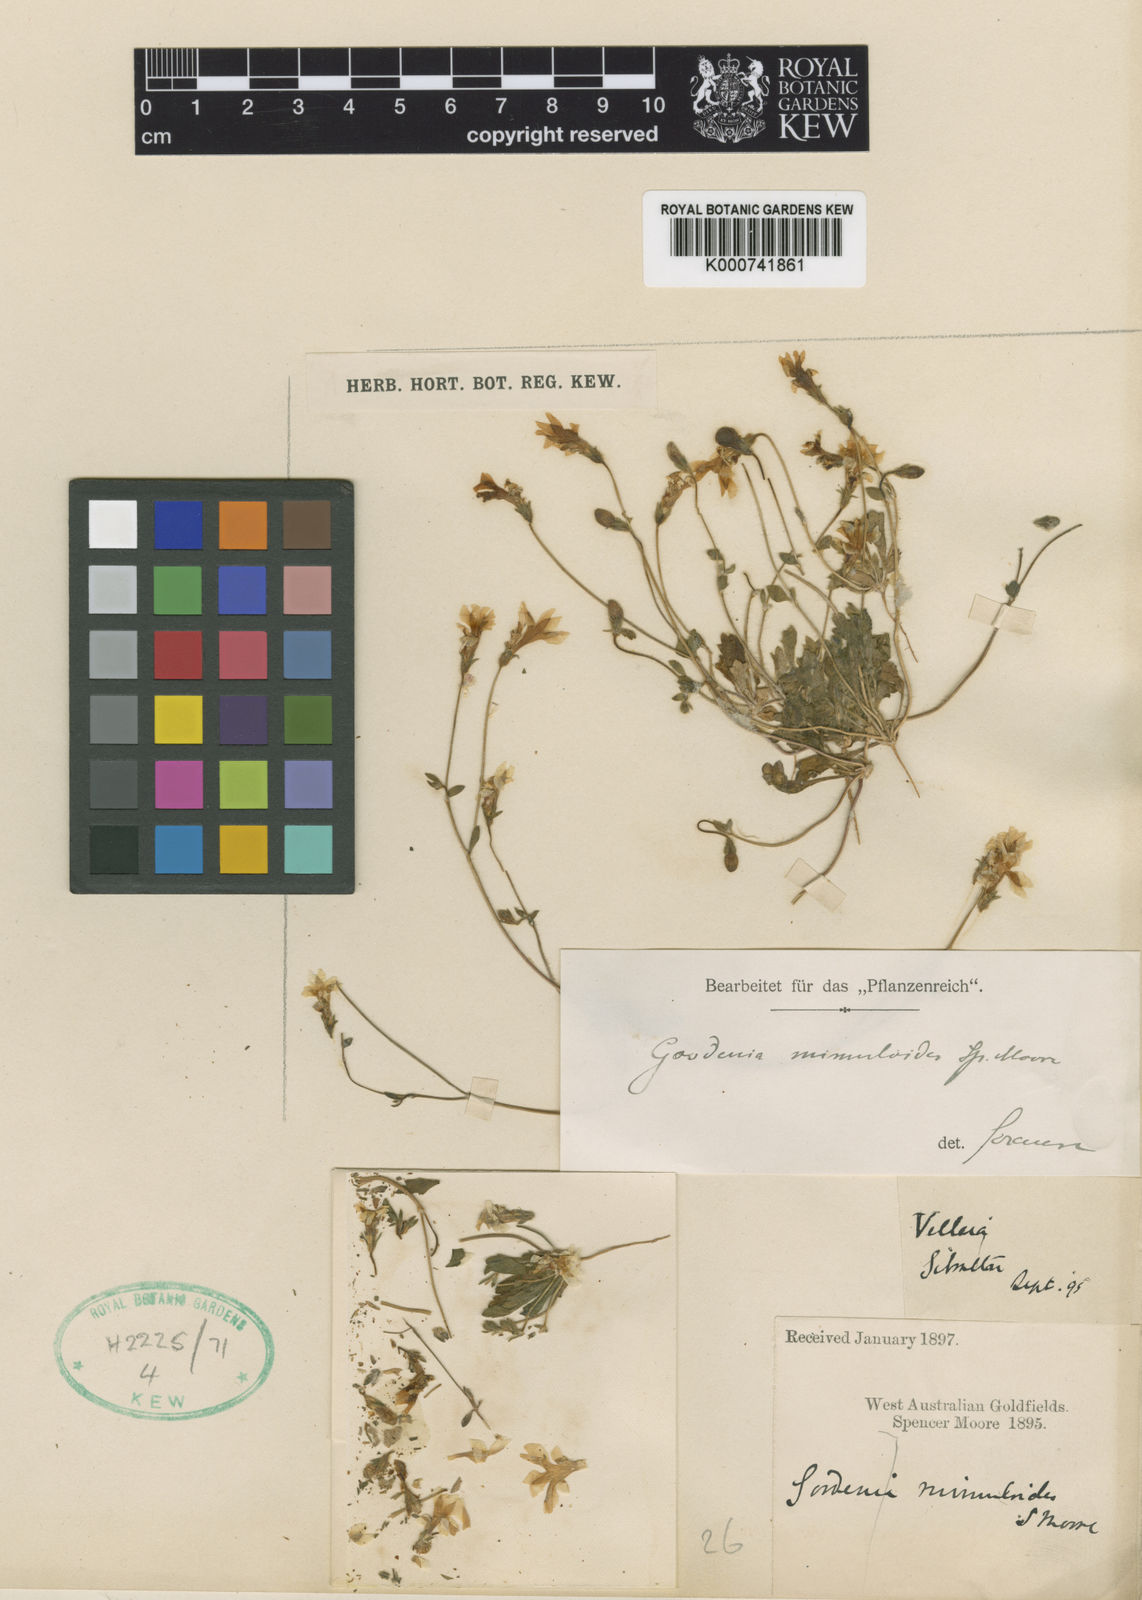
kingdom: Plantae
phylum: Tracheophyta
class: Magnoliopsida
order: Asterales
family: Goodeniaceae
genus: Goodenia
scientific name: Goodenia mimuloides
